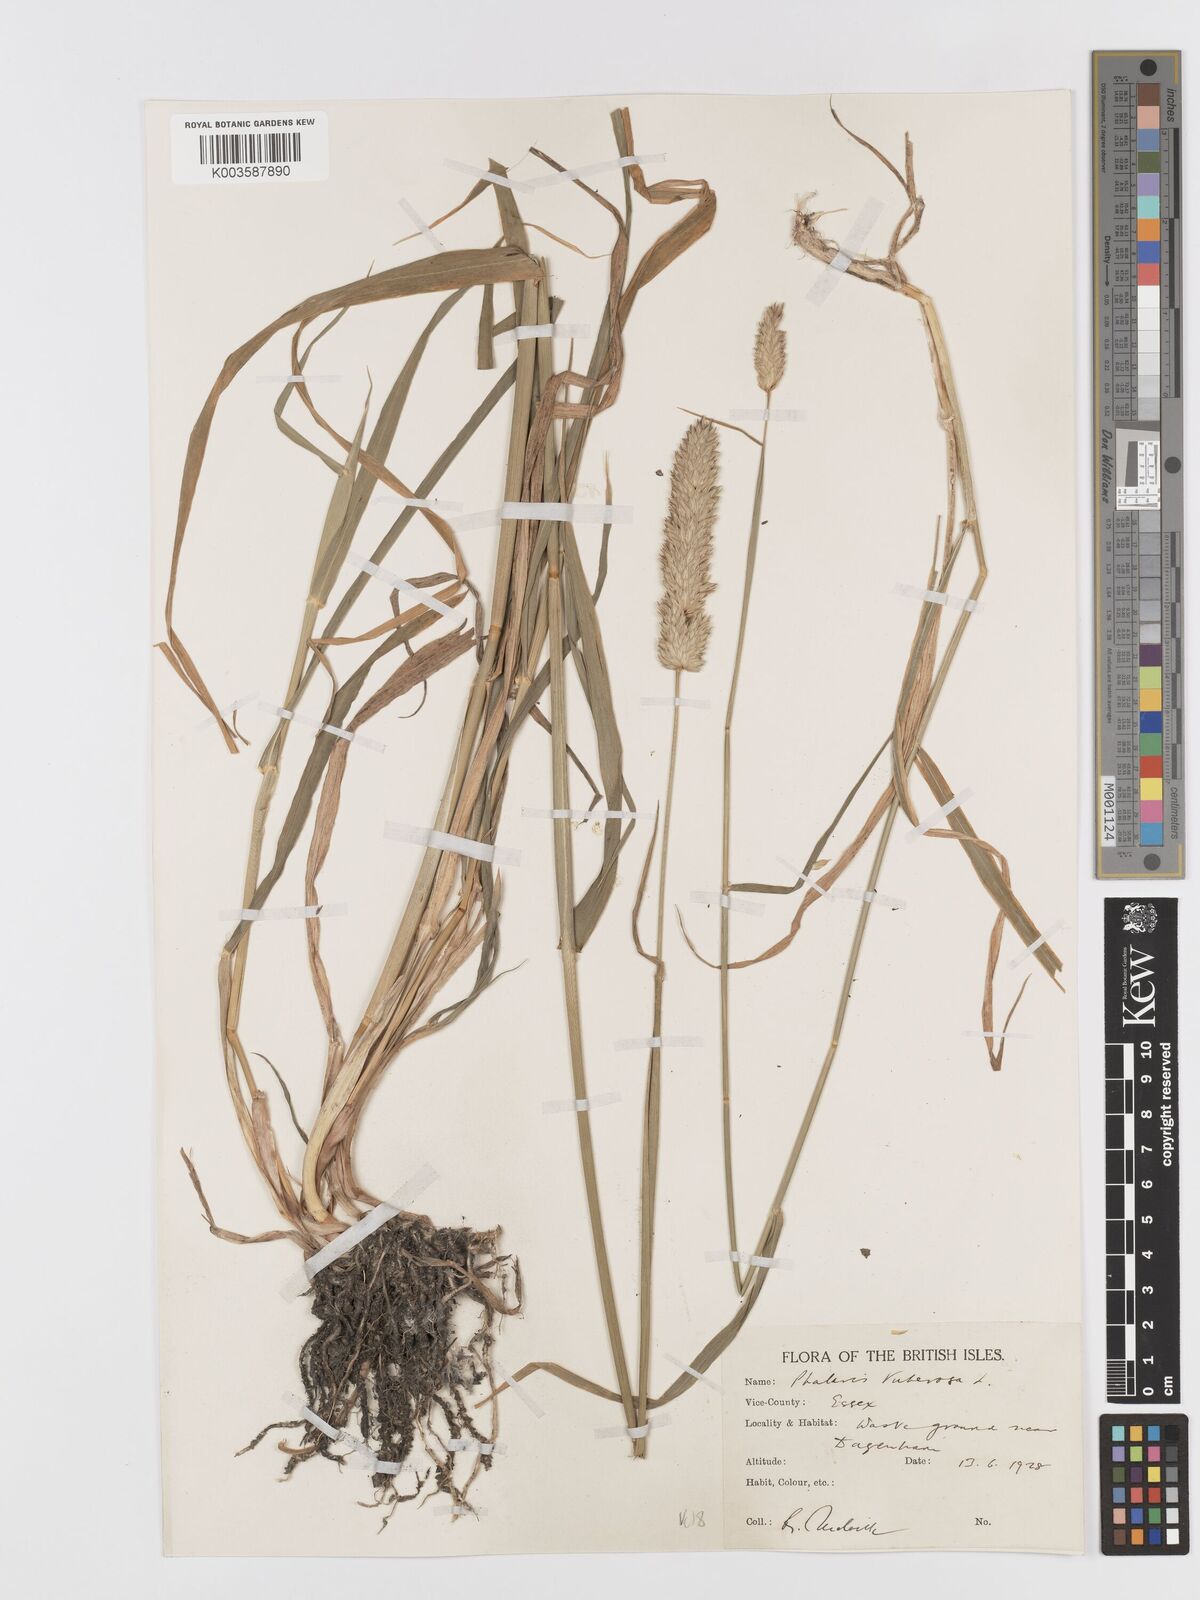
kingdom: Plantae
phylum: Tracheophyta
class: Liliopsida
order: Poales
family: Poaceae
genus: Phalaris
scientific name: Phalaris
